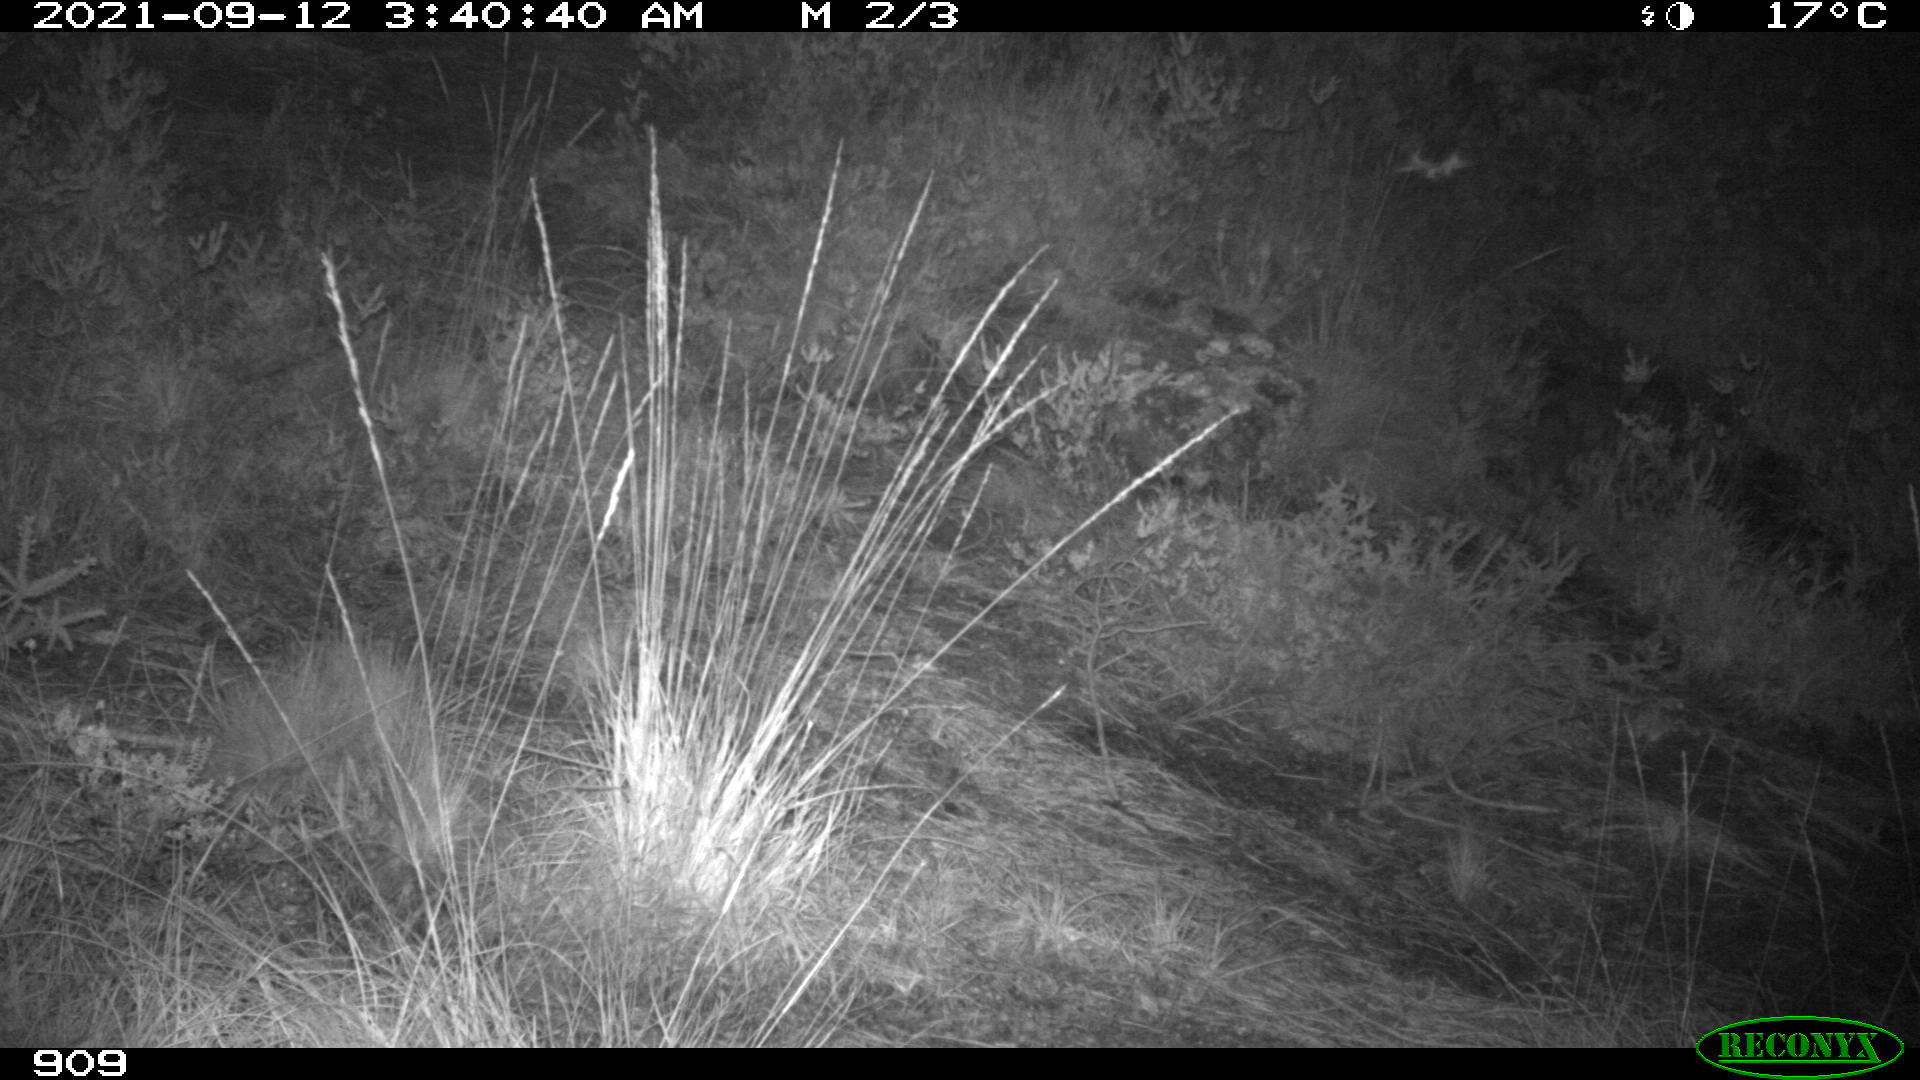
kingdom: Animalia
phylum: Chordata
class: Mammalia
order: Carnivora
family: Canidae
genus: Vulpes
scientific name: Vulpes vulpes
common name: Red fox
